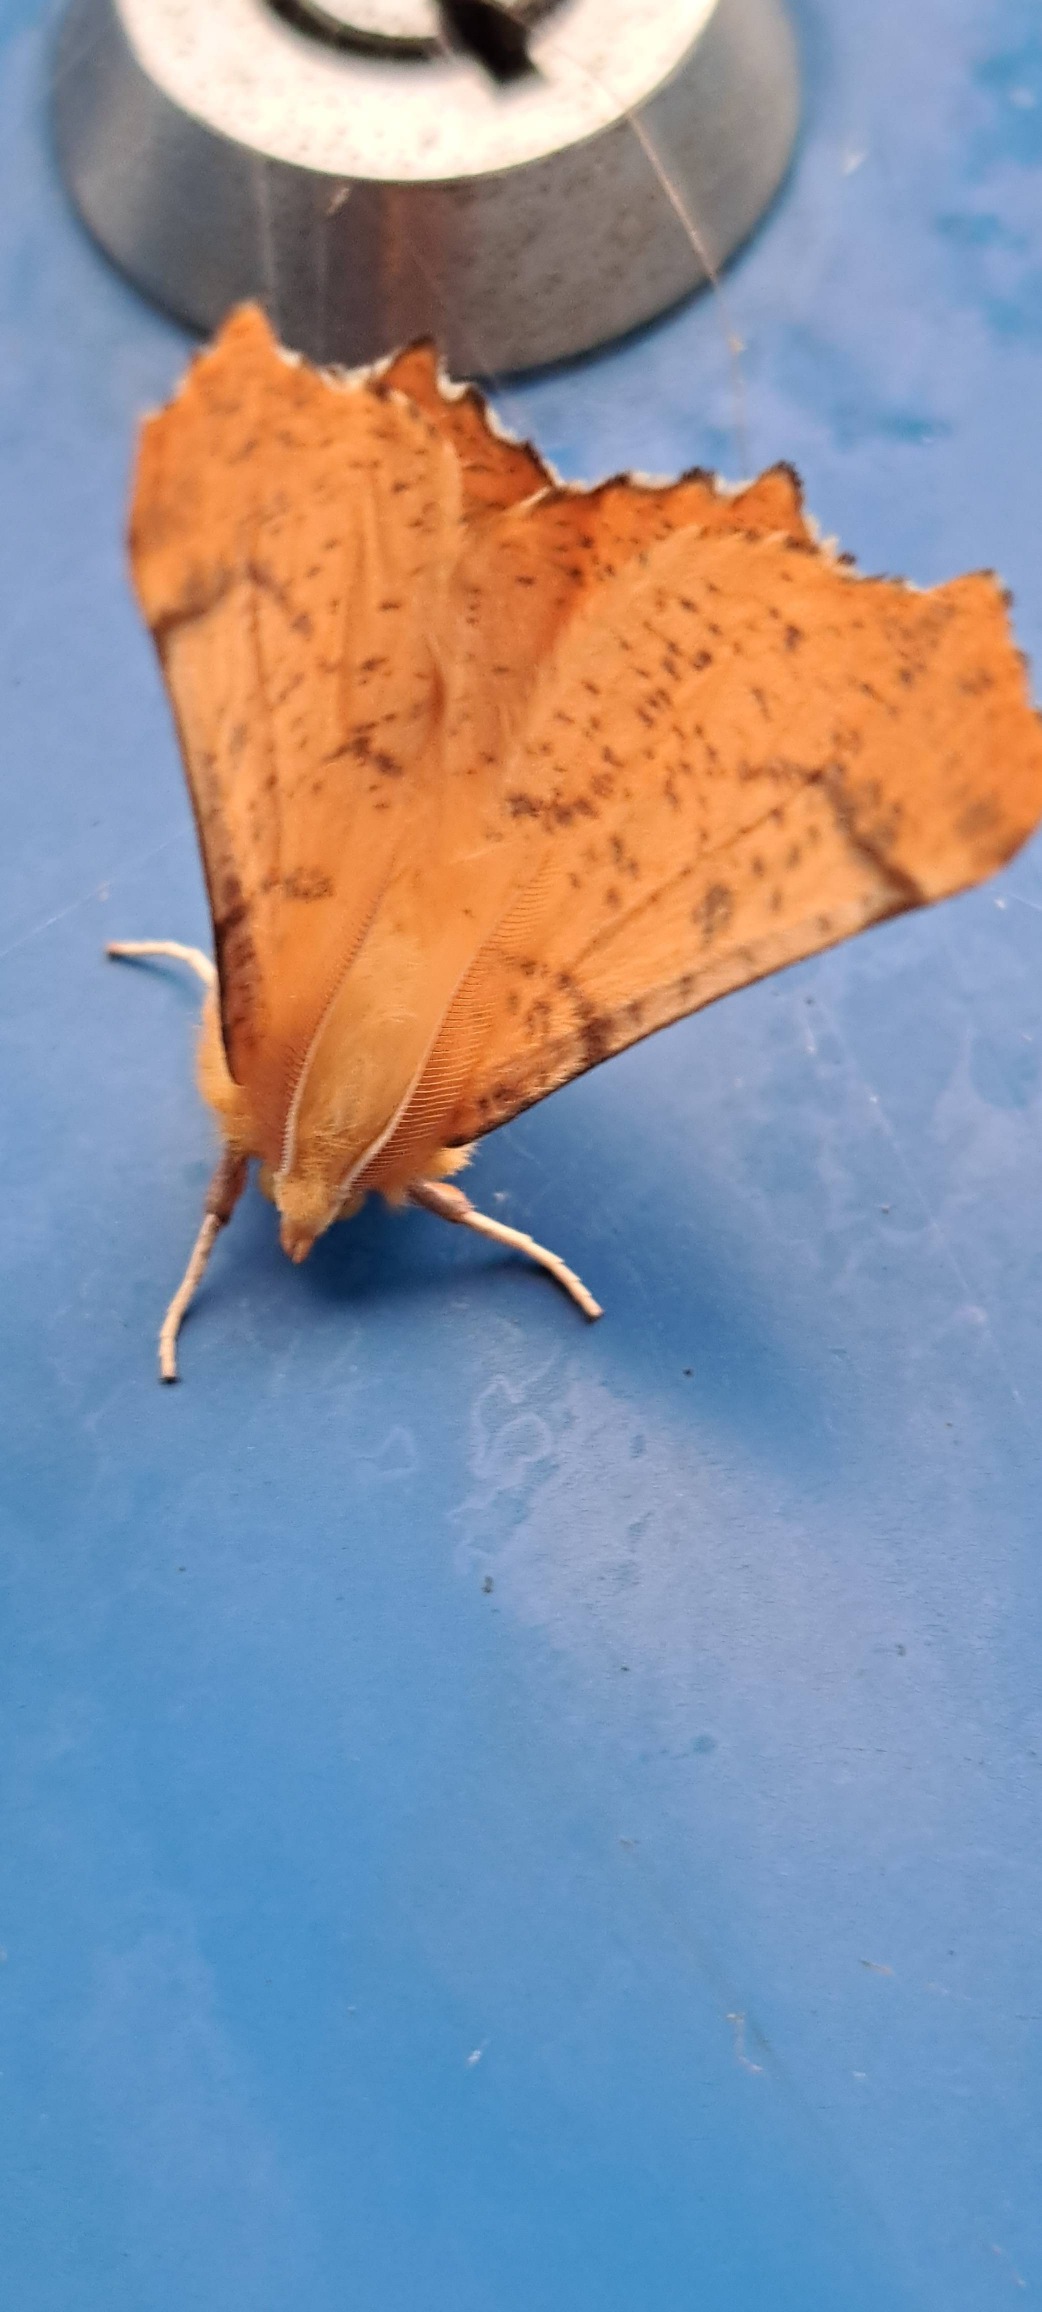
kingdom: Animalia
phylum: Arthropoda
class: Insecta
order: Lepidoptera
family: Geometridae
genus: Ennomos
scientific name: Ennomos autumnaria
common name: Stor tandmåler
